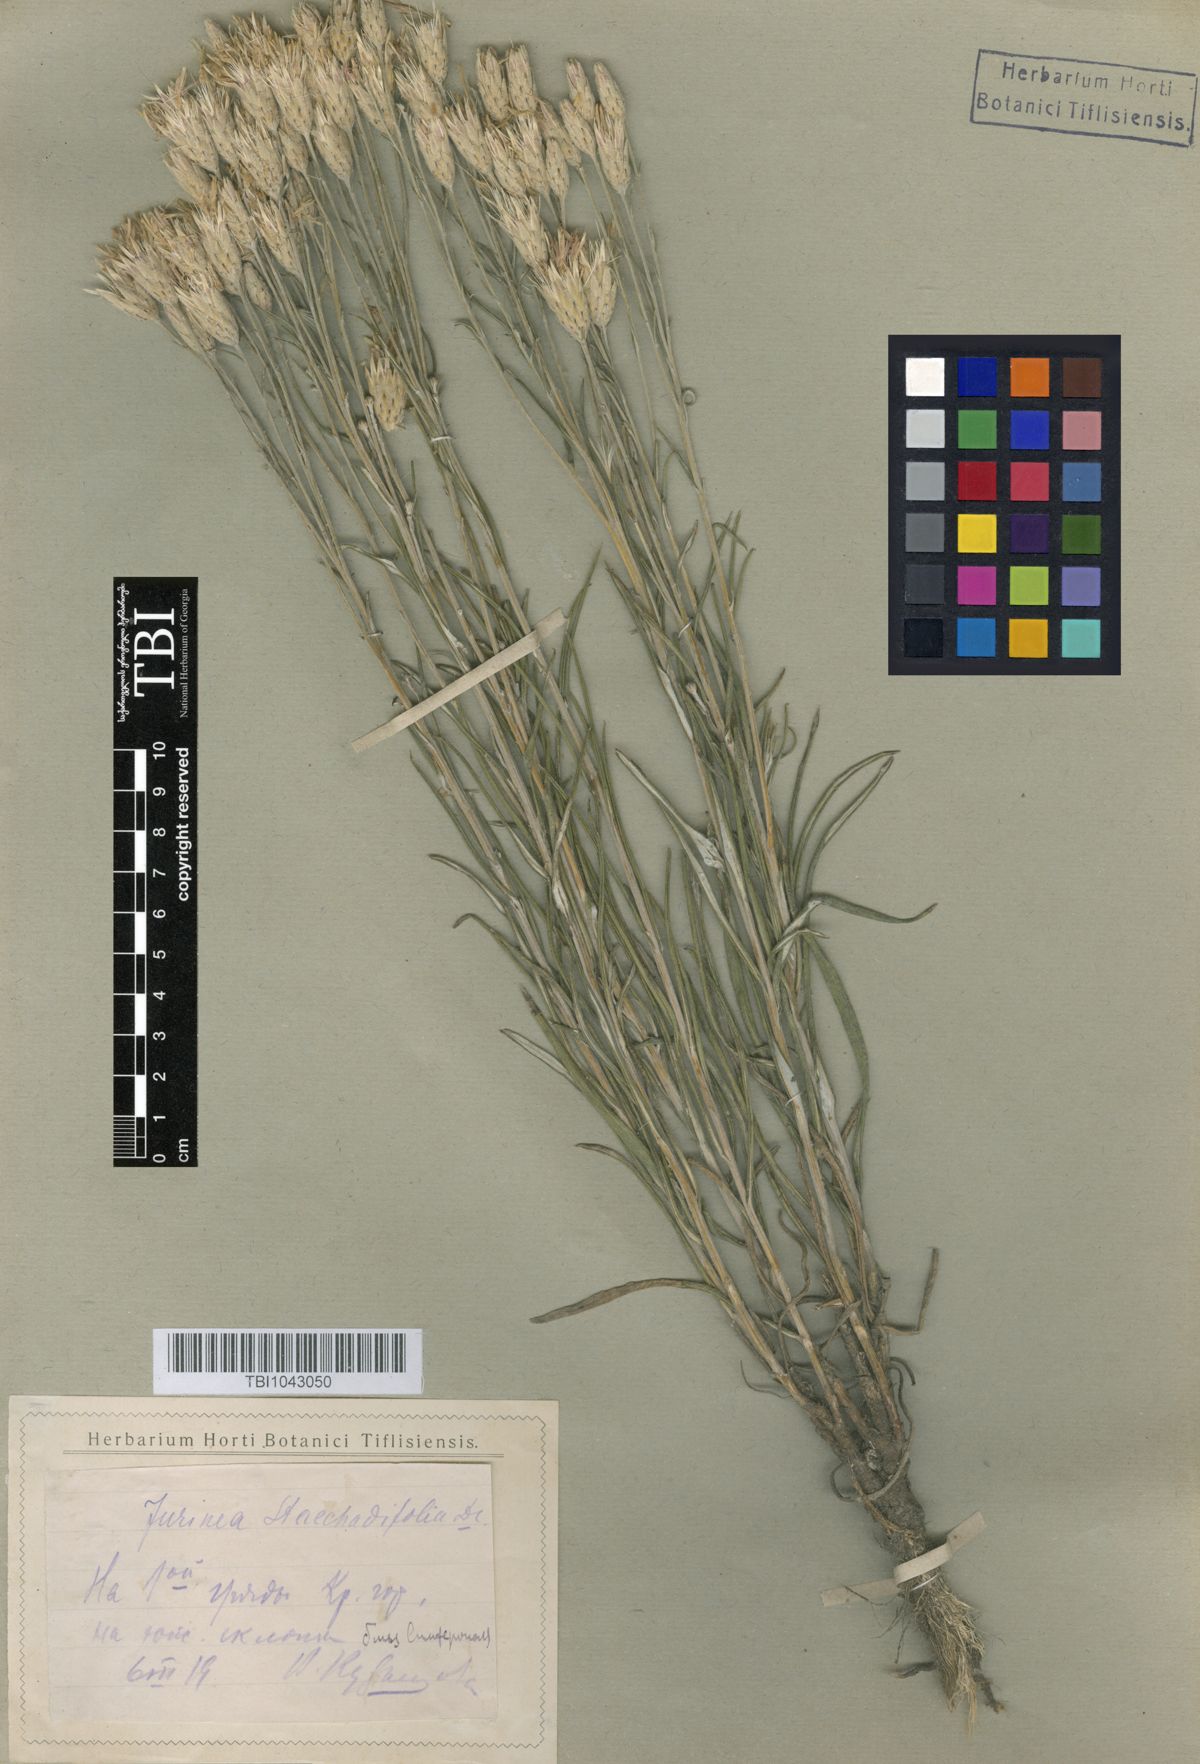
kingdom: Plantae
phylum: Tracheophyta
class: Magnoliopsida
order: Asterales
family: Asteraceae
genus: Jurinea
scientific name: Jurinea stoechadifolia
